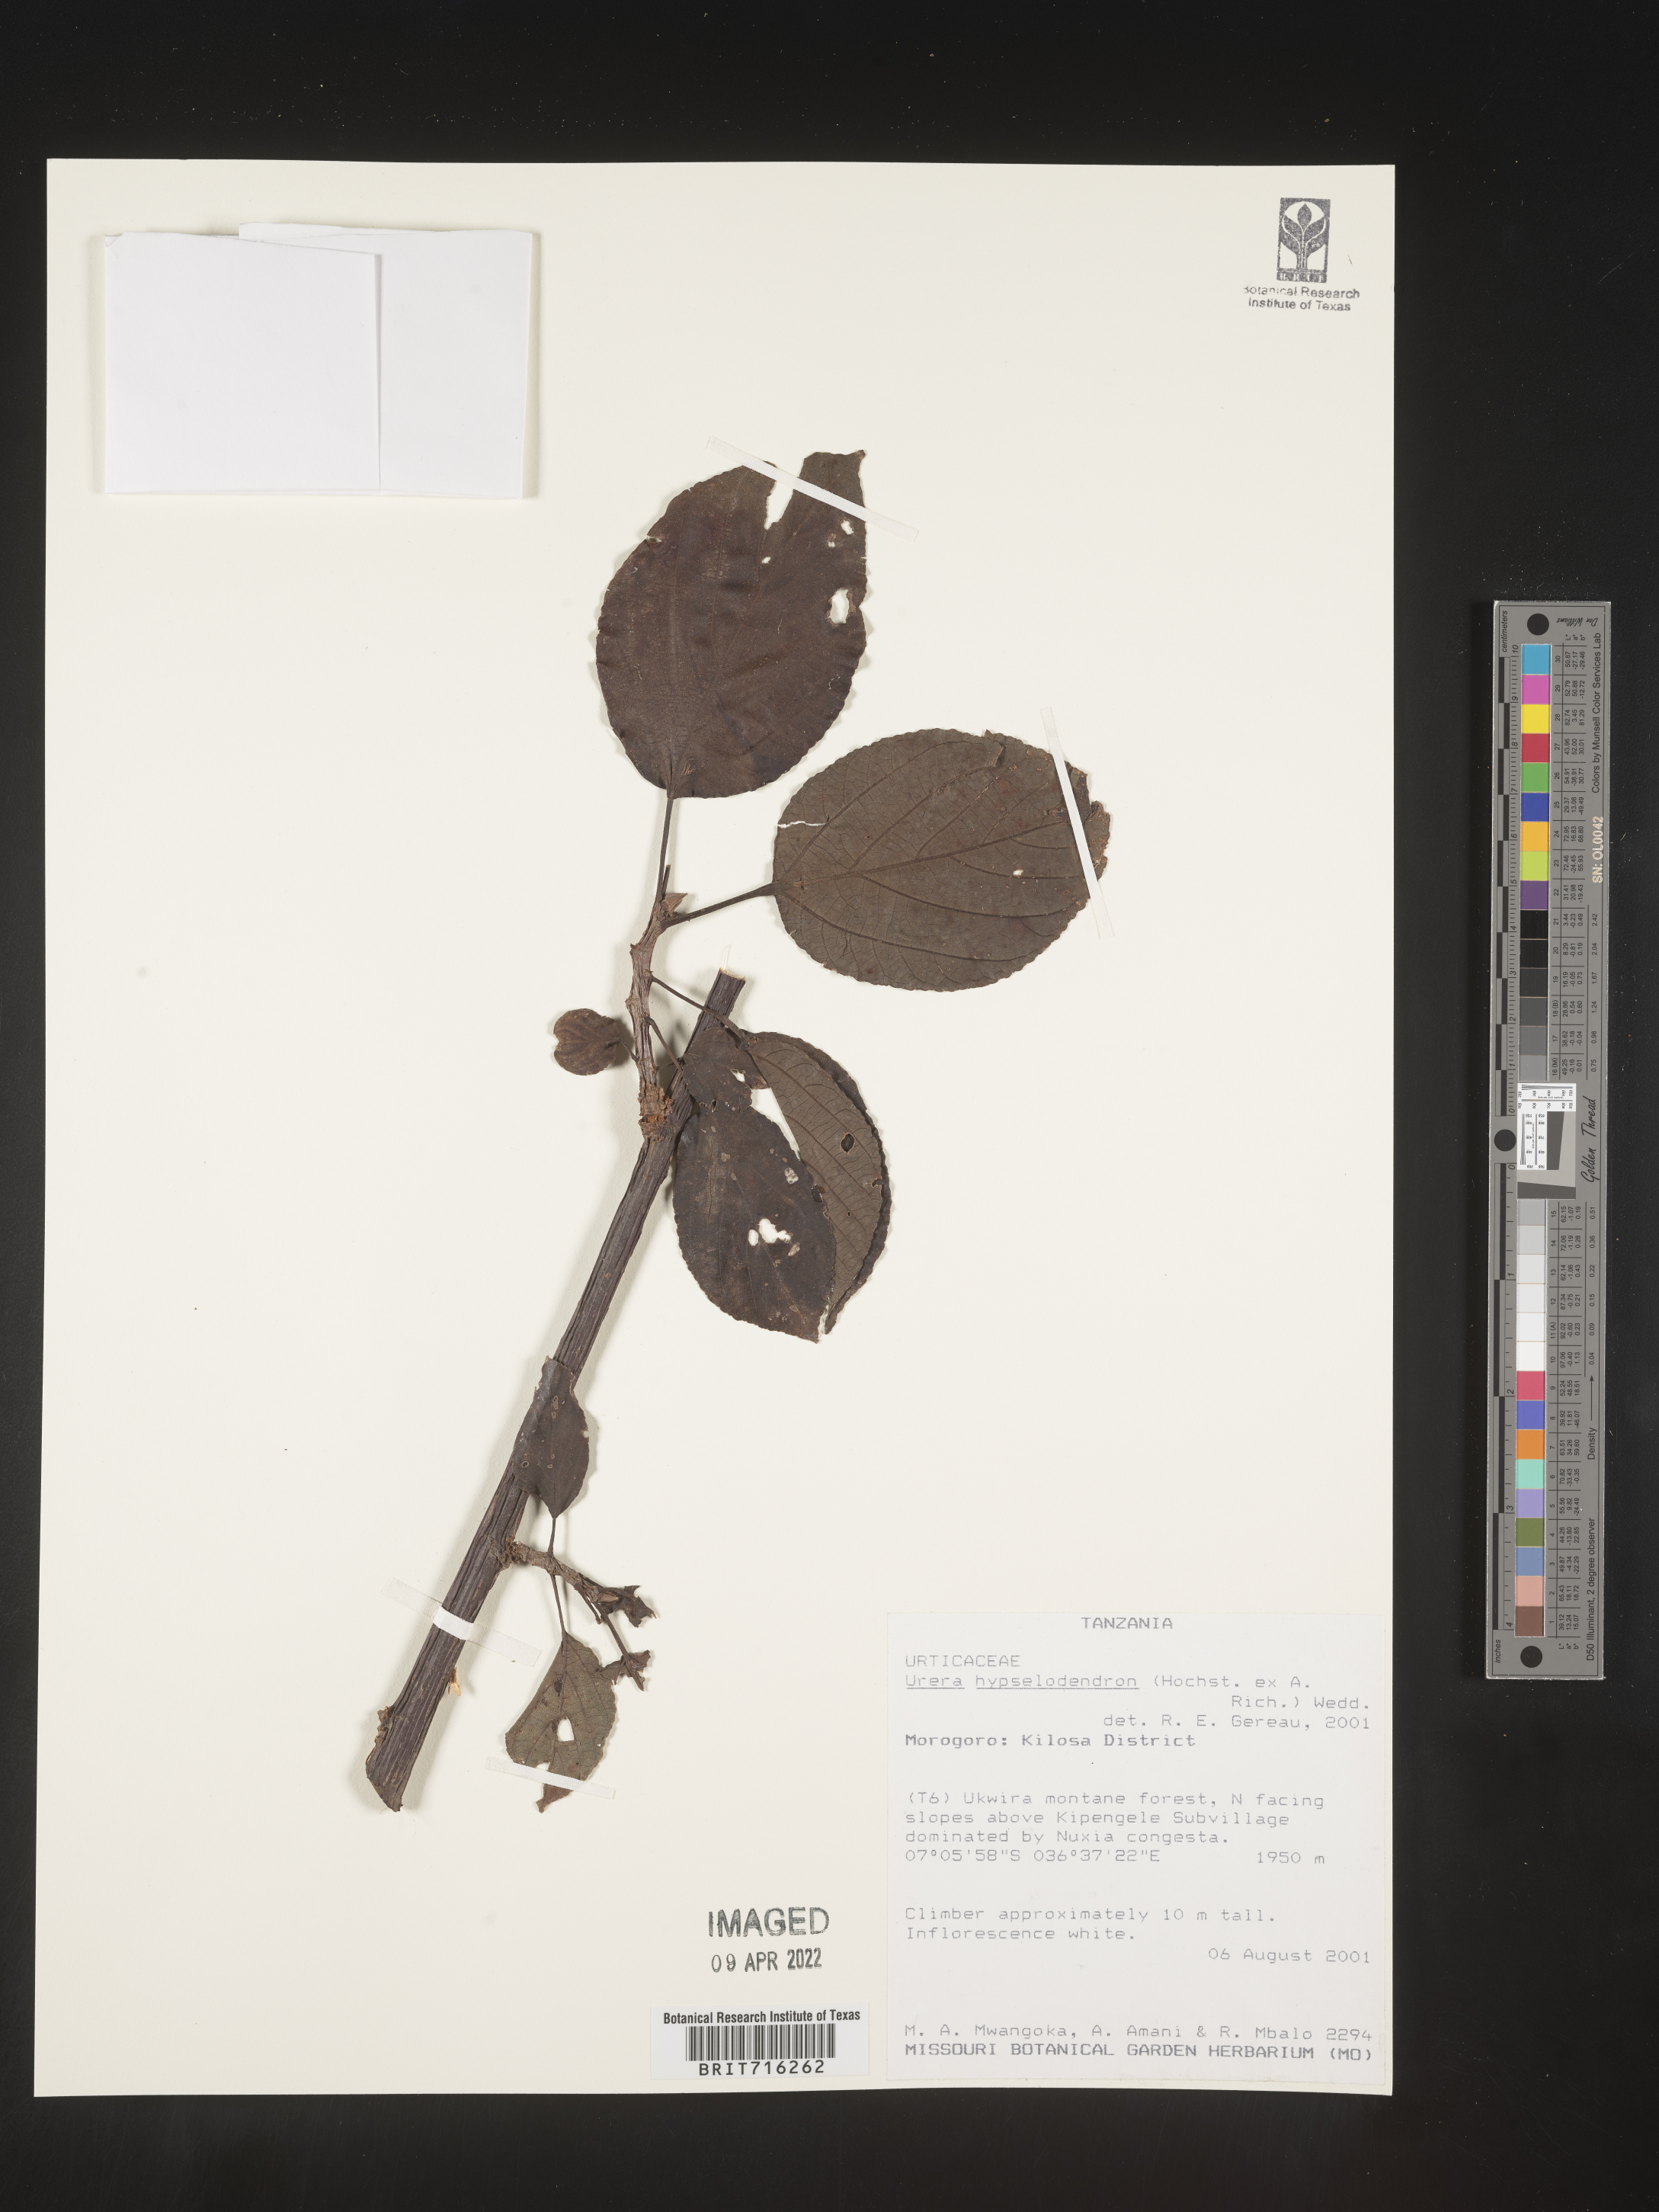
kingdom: Plantae
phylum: Tracheophyta
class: Magnoliopsida
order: Rosales
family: Urticaceae
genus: Urera
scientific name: Urera
